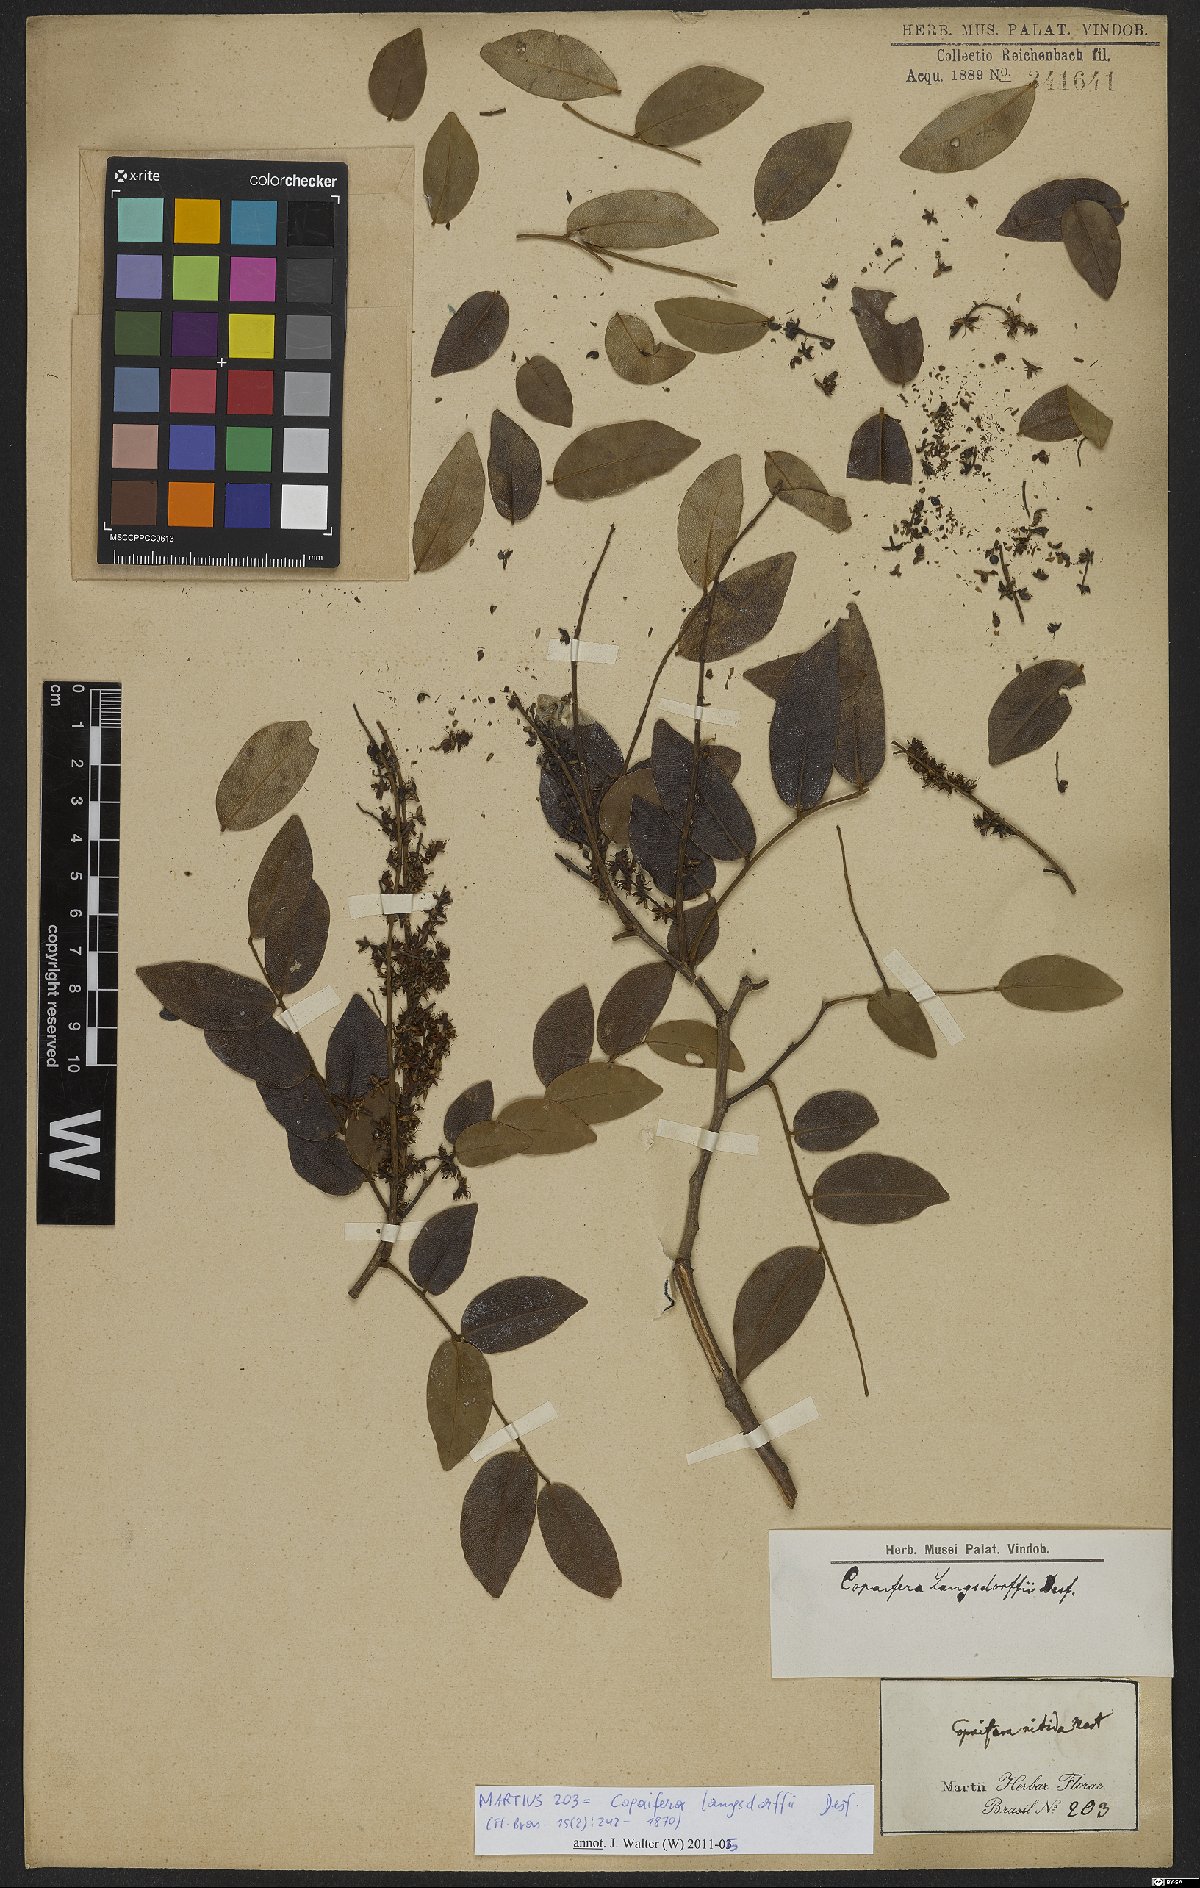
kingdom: Plantae
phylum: Tracheophyta
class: Magnoliopsida
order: Fabales
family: Fabaceae
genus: Copaifera
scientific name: Copaifera langsdorffii
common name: Brazilian diesel tree
